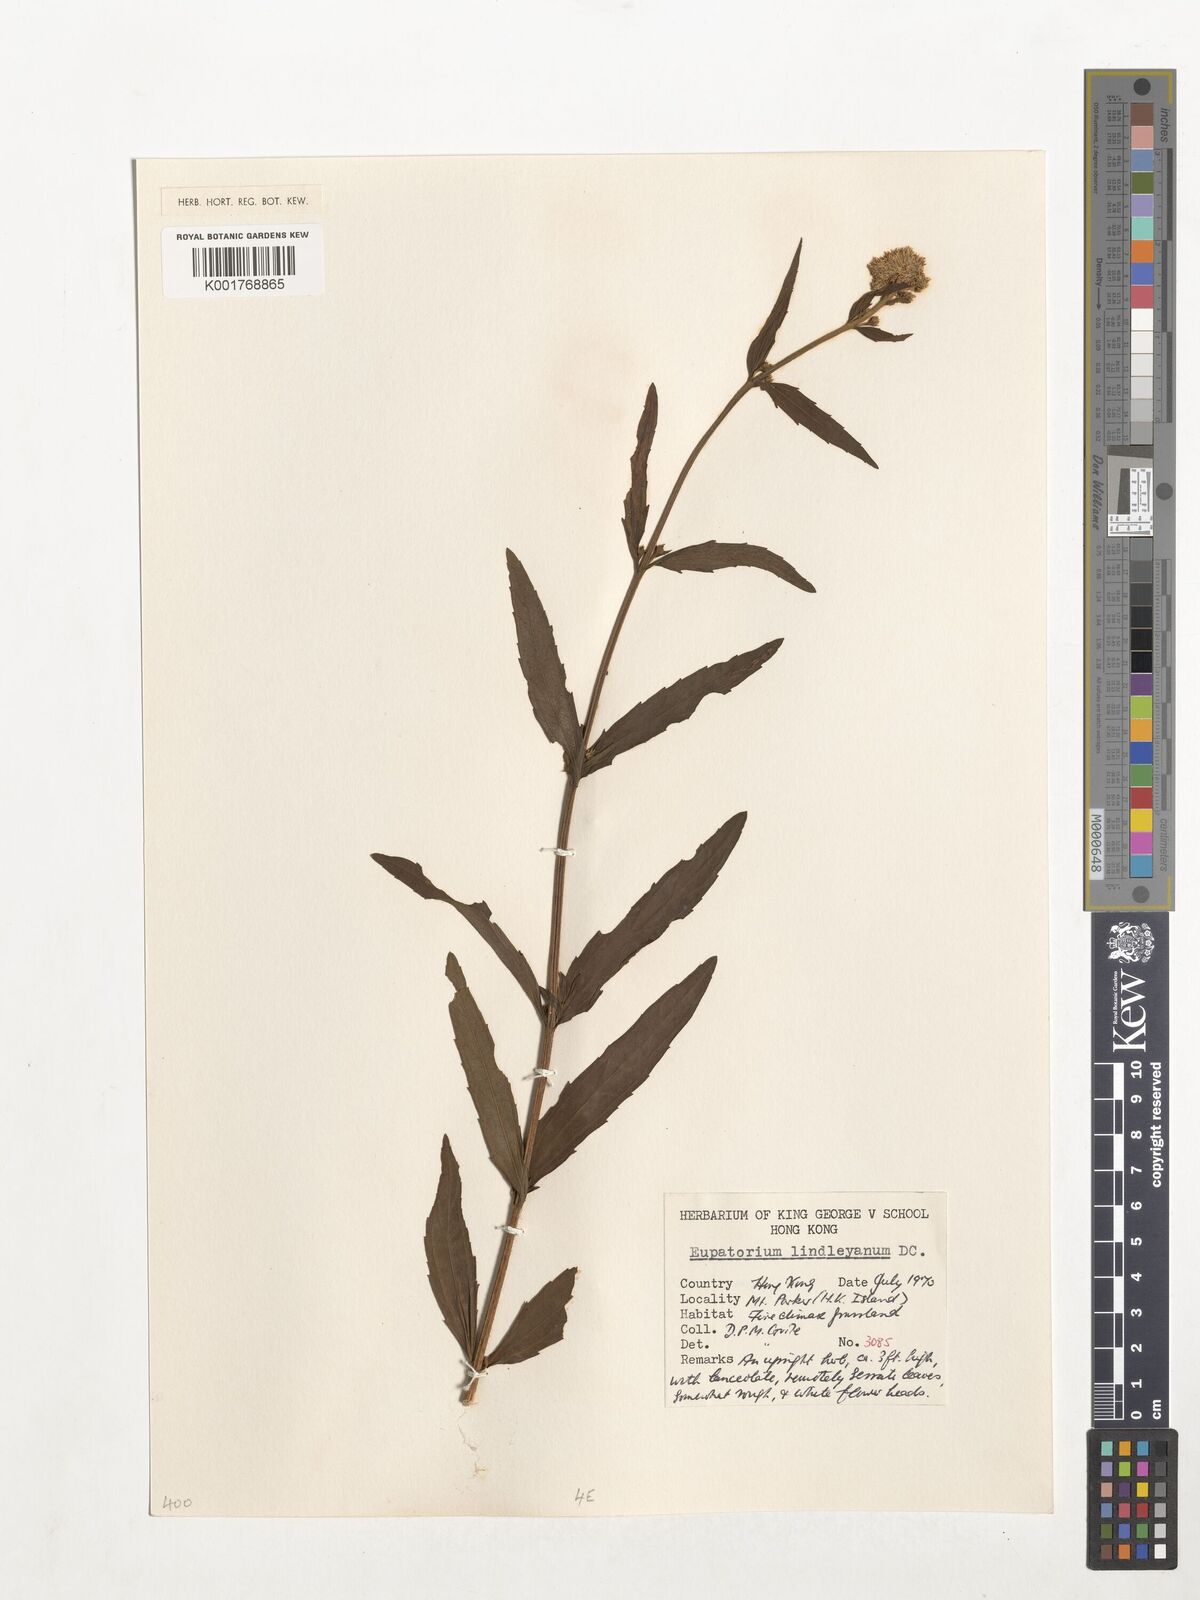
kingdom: Plantae
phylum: Tracheophyta
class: Magnoliopsida
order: Asterales
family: Asteraceae
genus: Eupatorium
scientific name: Eupatorium lindleyanum
